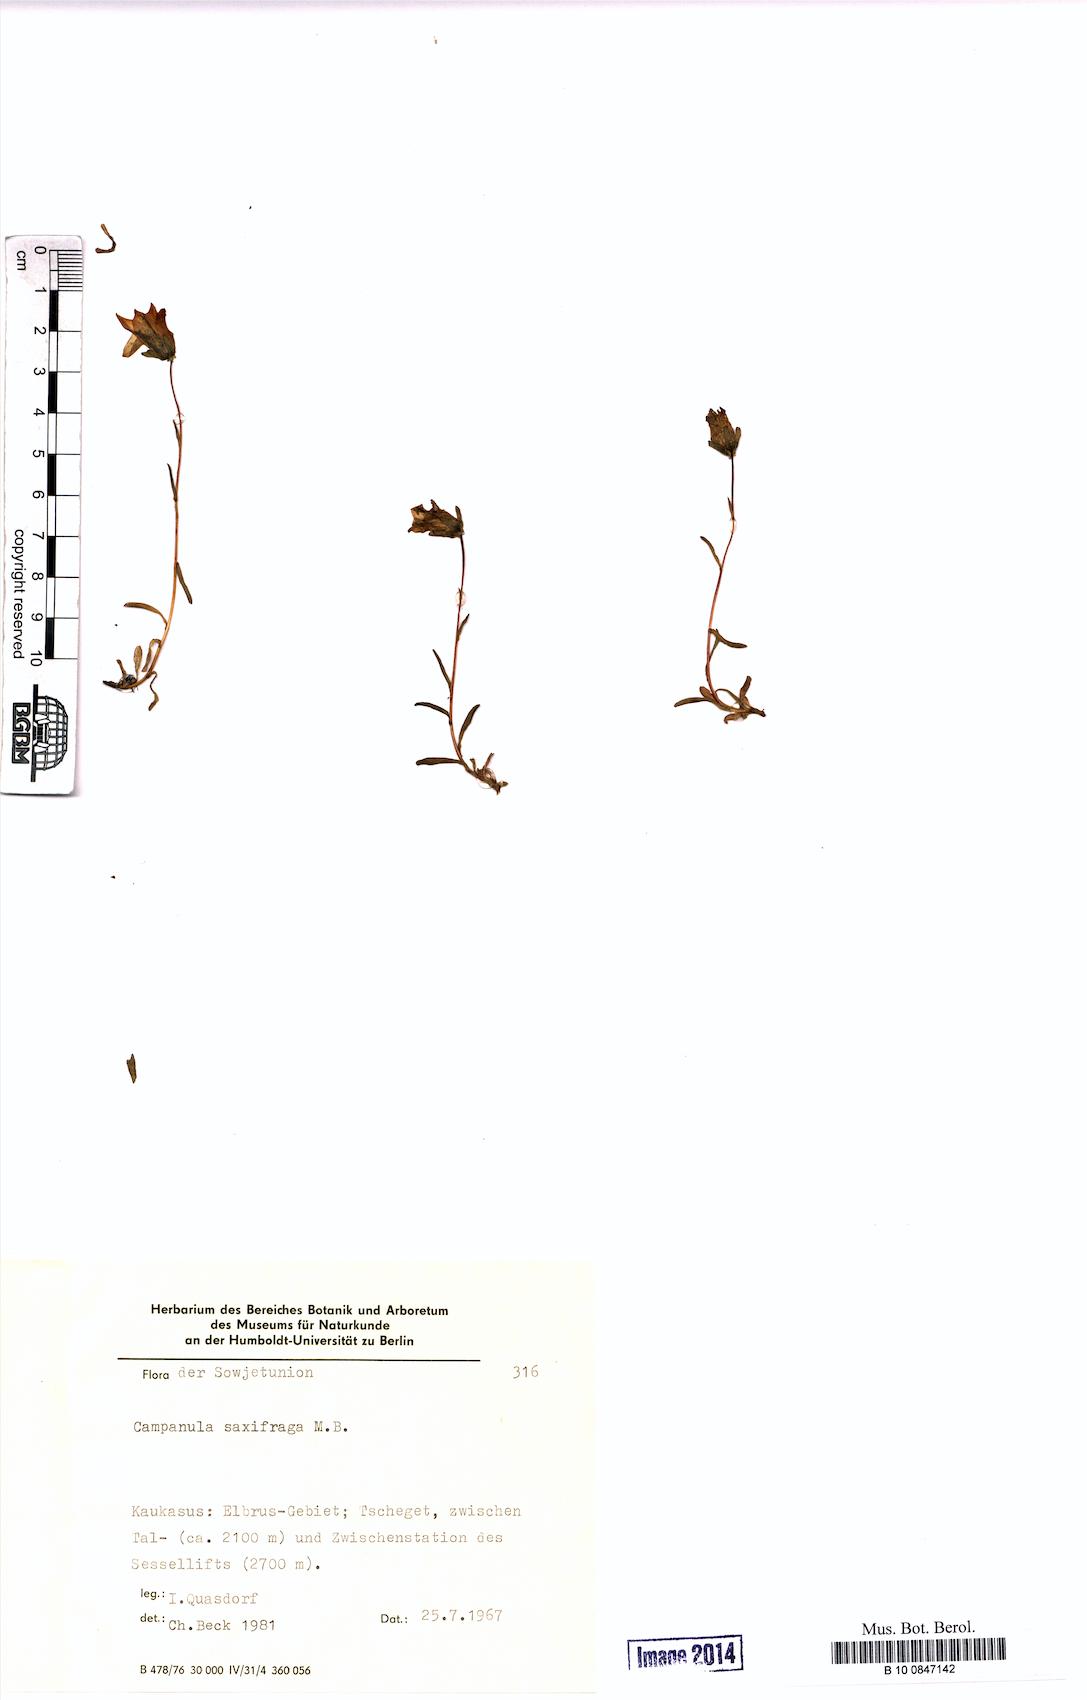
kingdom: Plantae
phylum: Tracheophyta
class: Magnoliopsida
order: Asterales
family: Campanulaceae
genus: Campanula
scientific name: Campanula saxifraga
